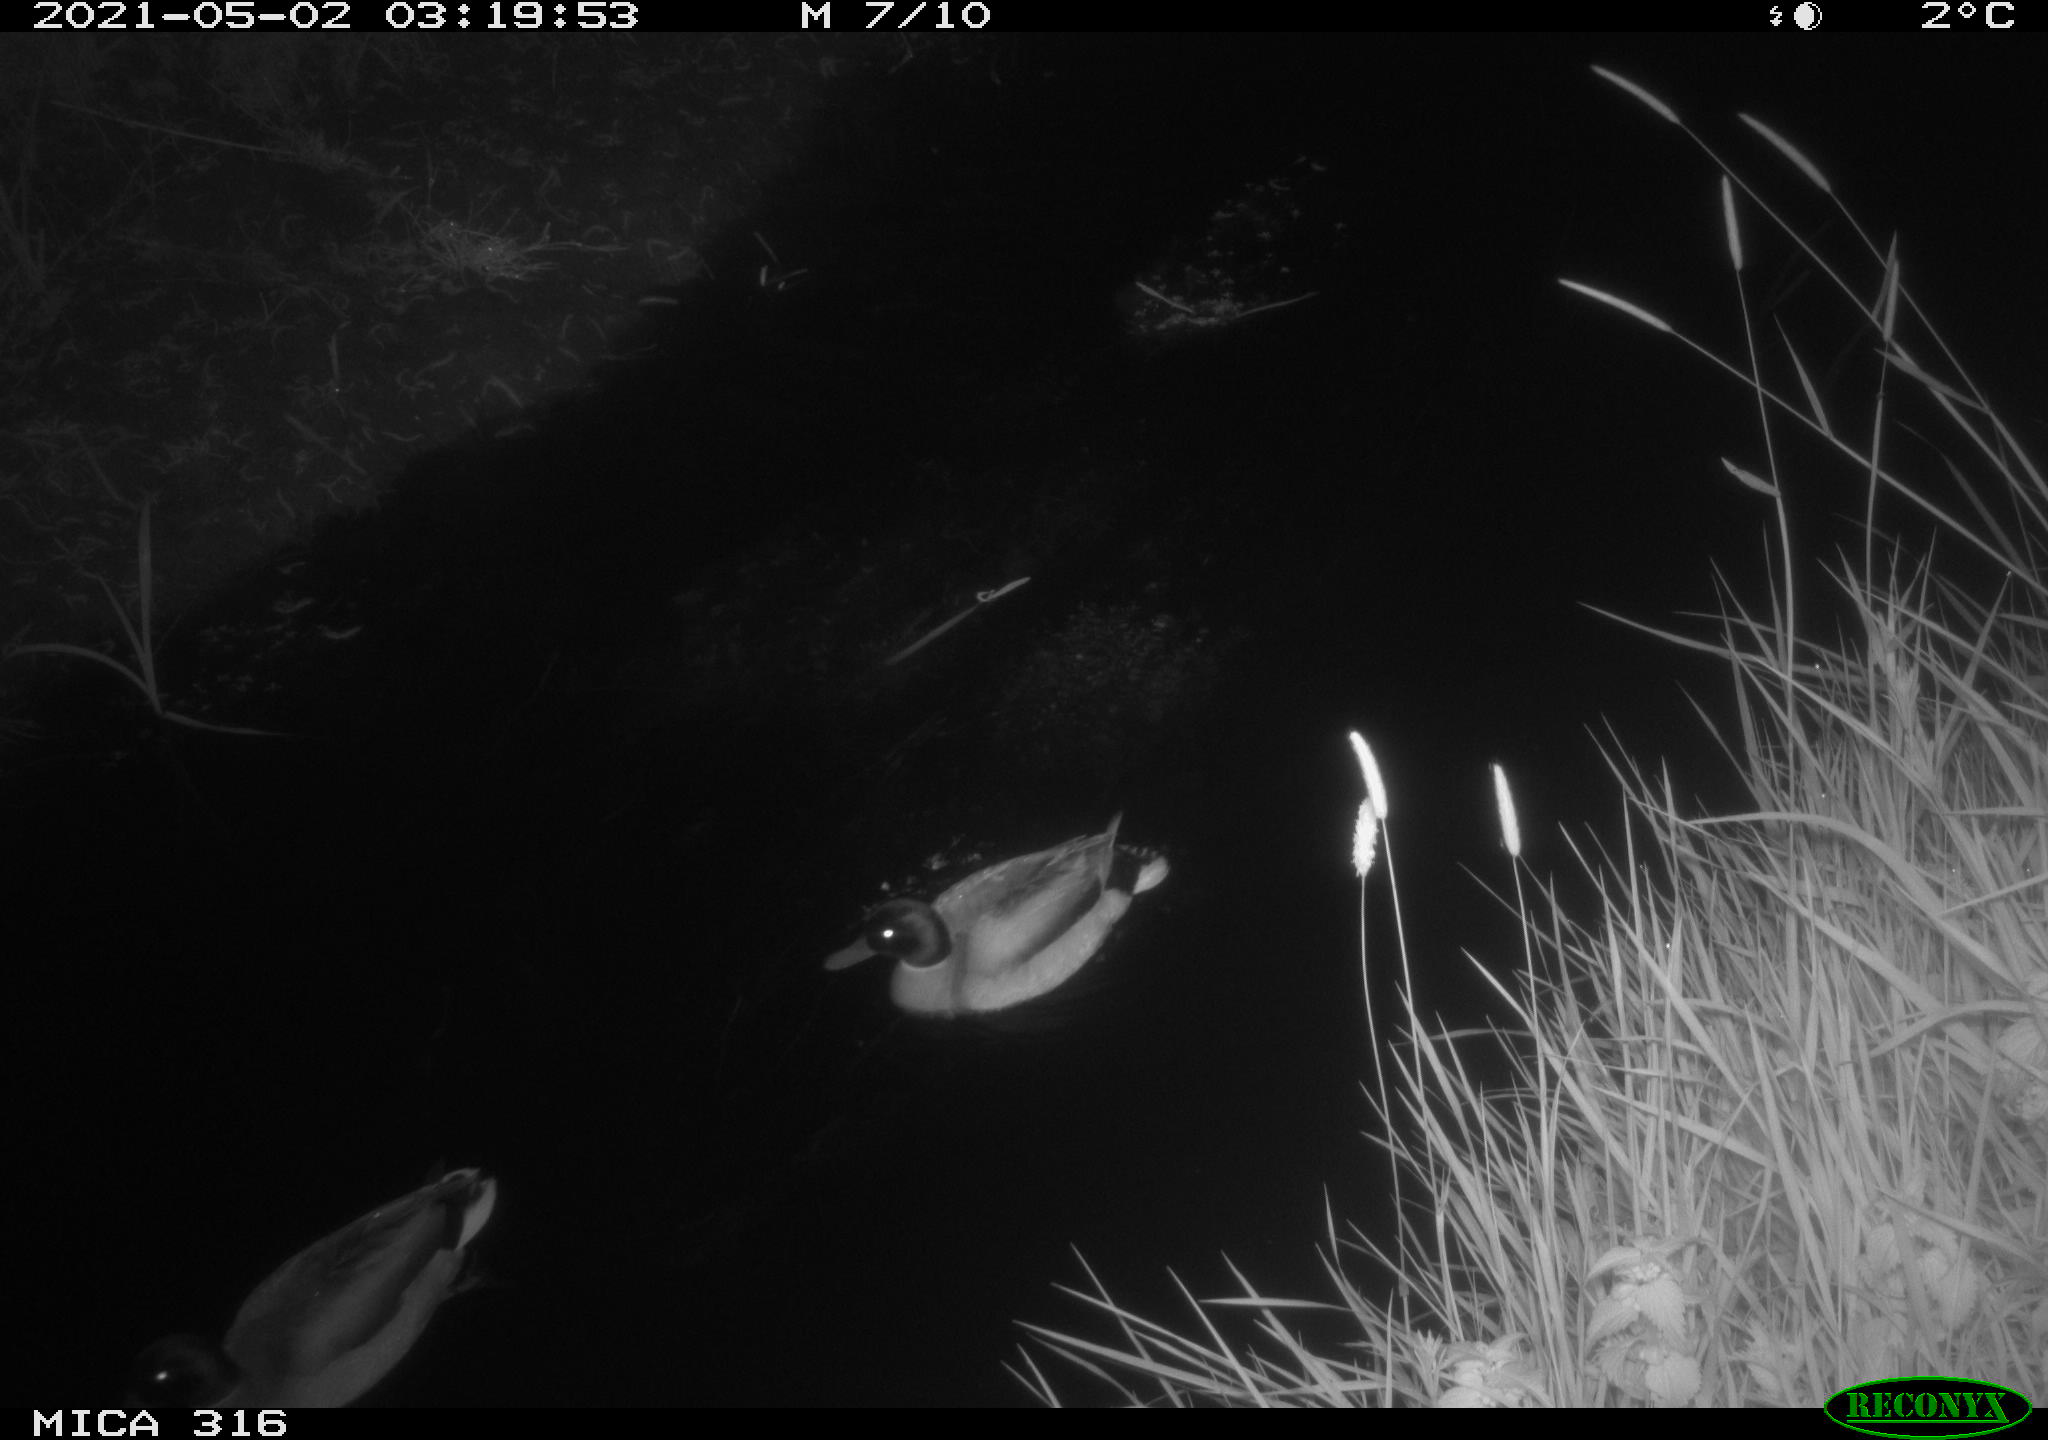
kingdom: Animalia
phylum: Chordata
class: Aves
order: Anseriformes
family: Anatidae
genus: Anas
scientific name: Anas platyrhynchos
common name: Mallard
